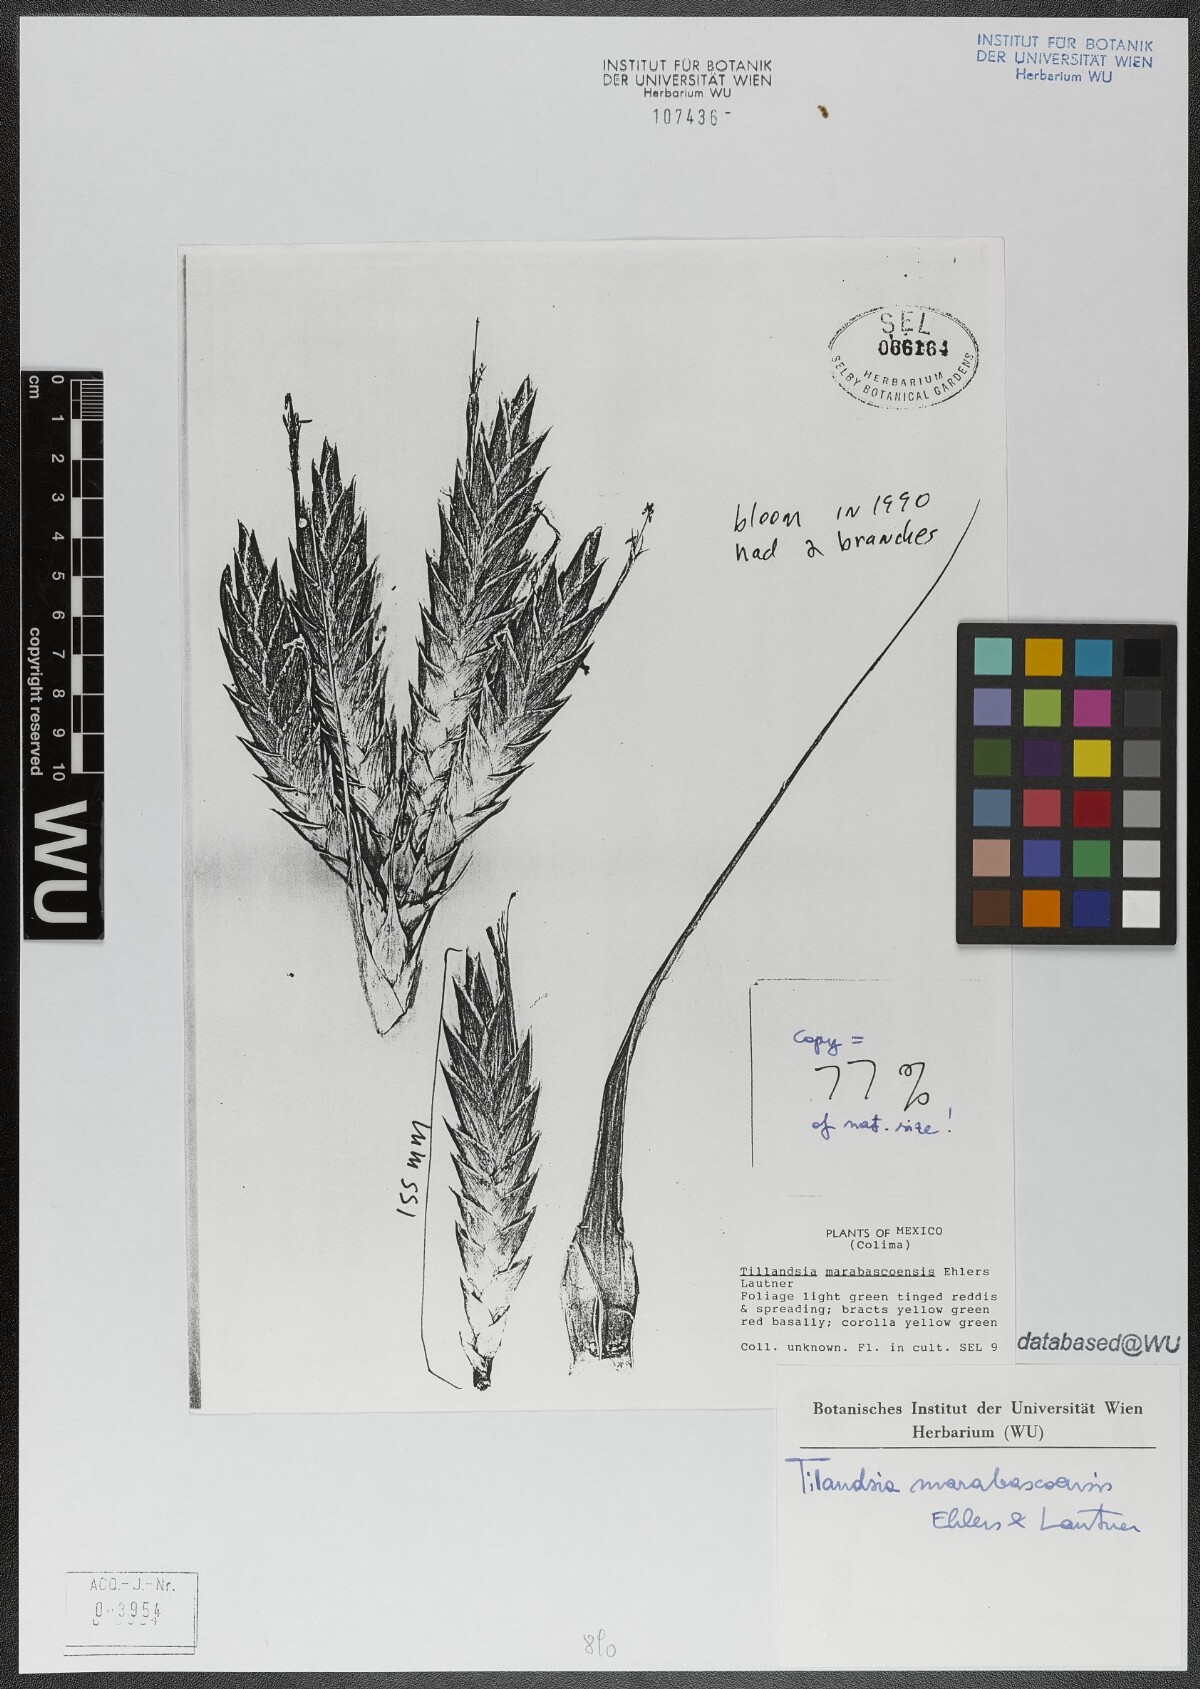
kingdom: Plantae
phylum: Tracheophyta
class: Liliopsida
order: Poales
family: Bromeliaceae
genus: Tillandsia
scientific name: Tillandsia marabascoensis
